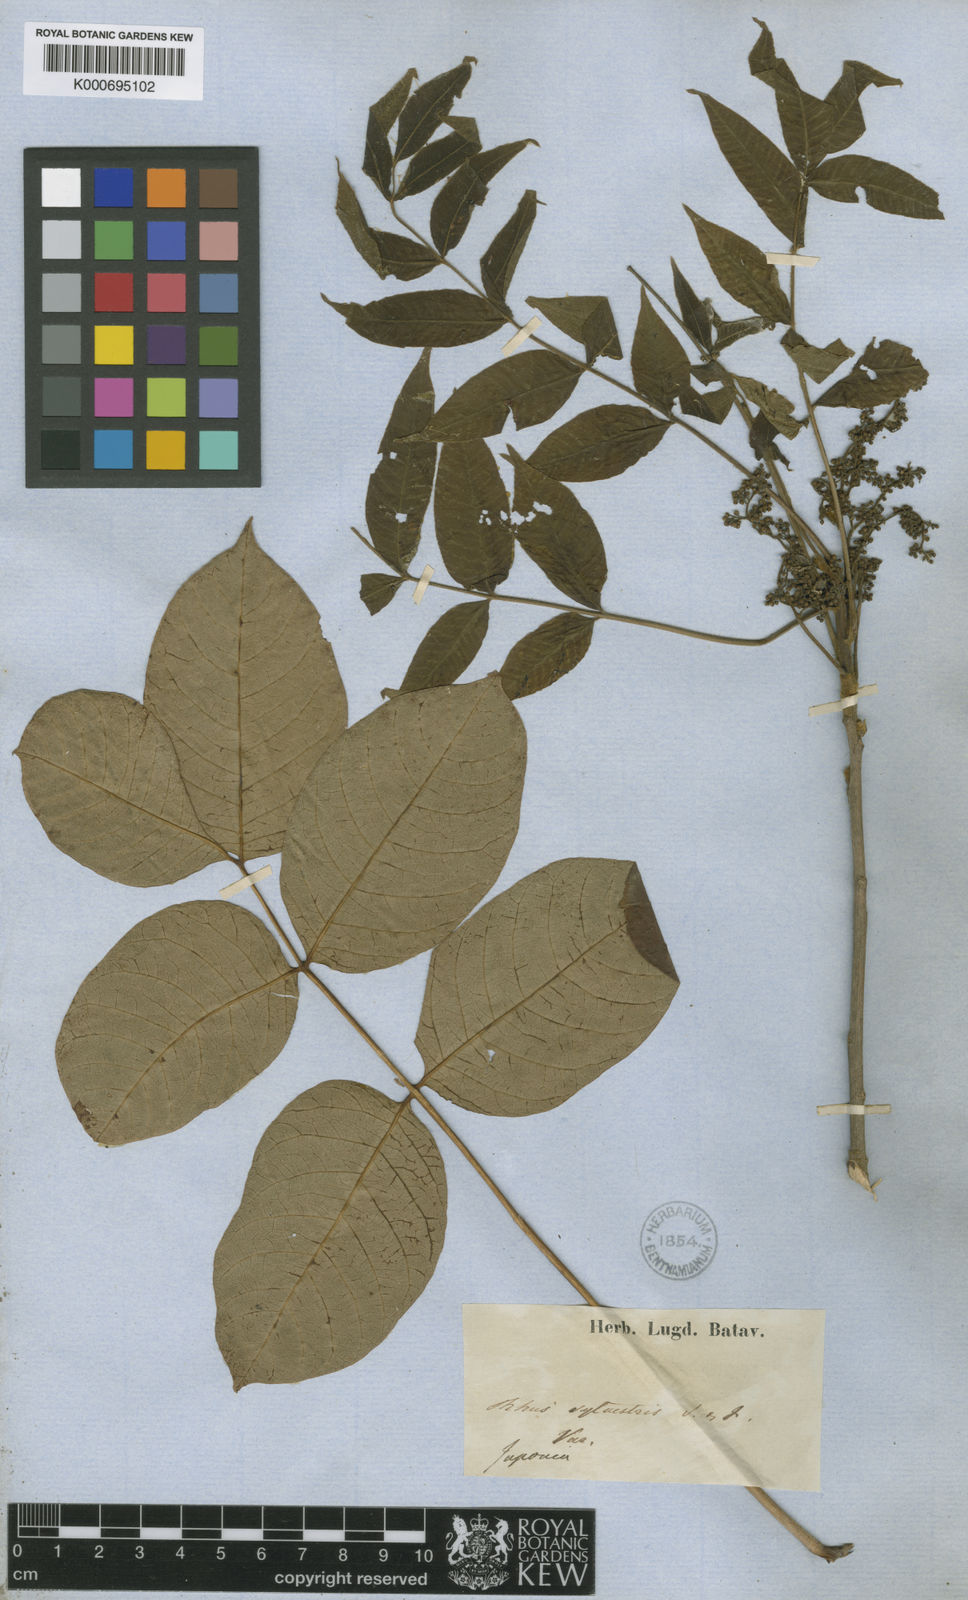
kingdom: Plantae
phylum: Tracheophyta
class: Magnoliopsida
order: Sapindales
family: Anacardiaceae
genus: Toxicodendron
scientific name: Toxicodendron sylvestre
